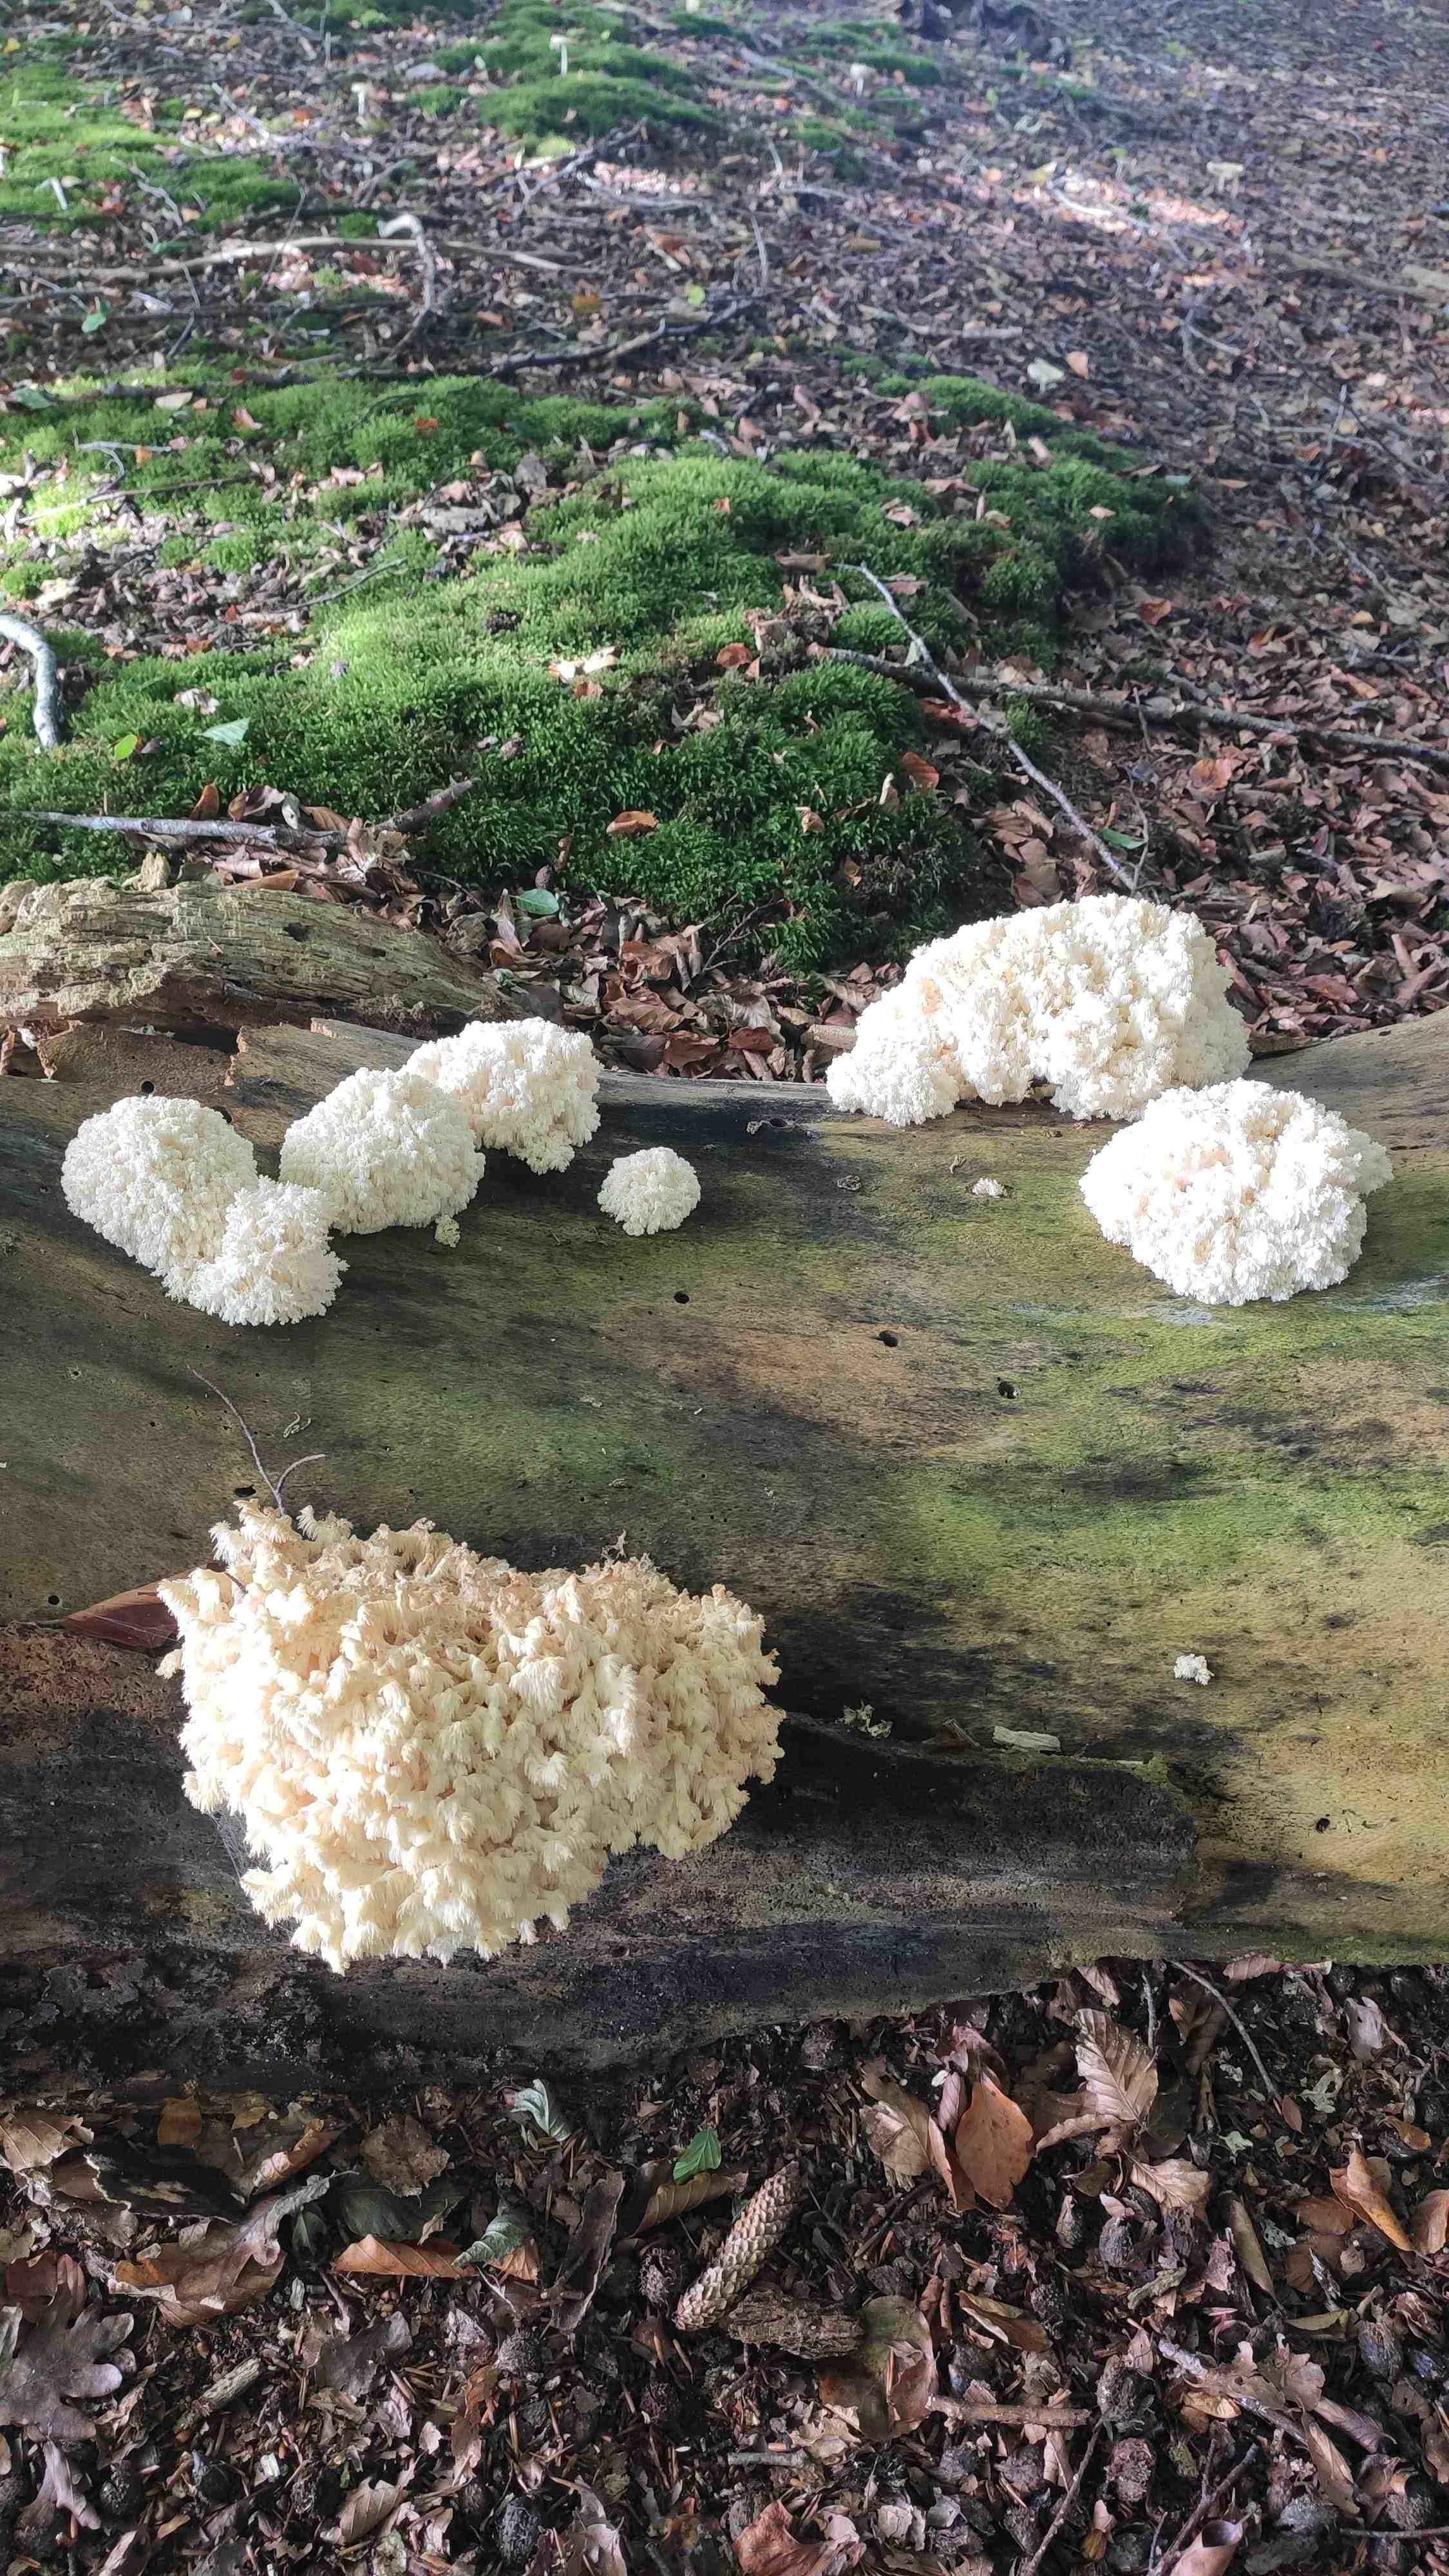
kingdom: Fungi
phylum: Basidiomycota
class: Agaricomycetes
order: Russulales
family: Hericiaceae
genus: Hericium
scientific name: Hericium coralloides
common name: koralpigsvamp
